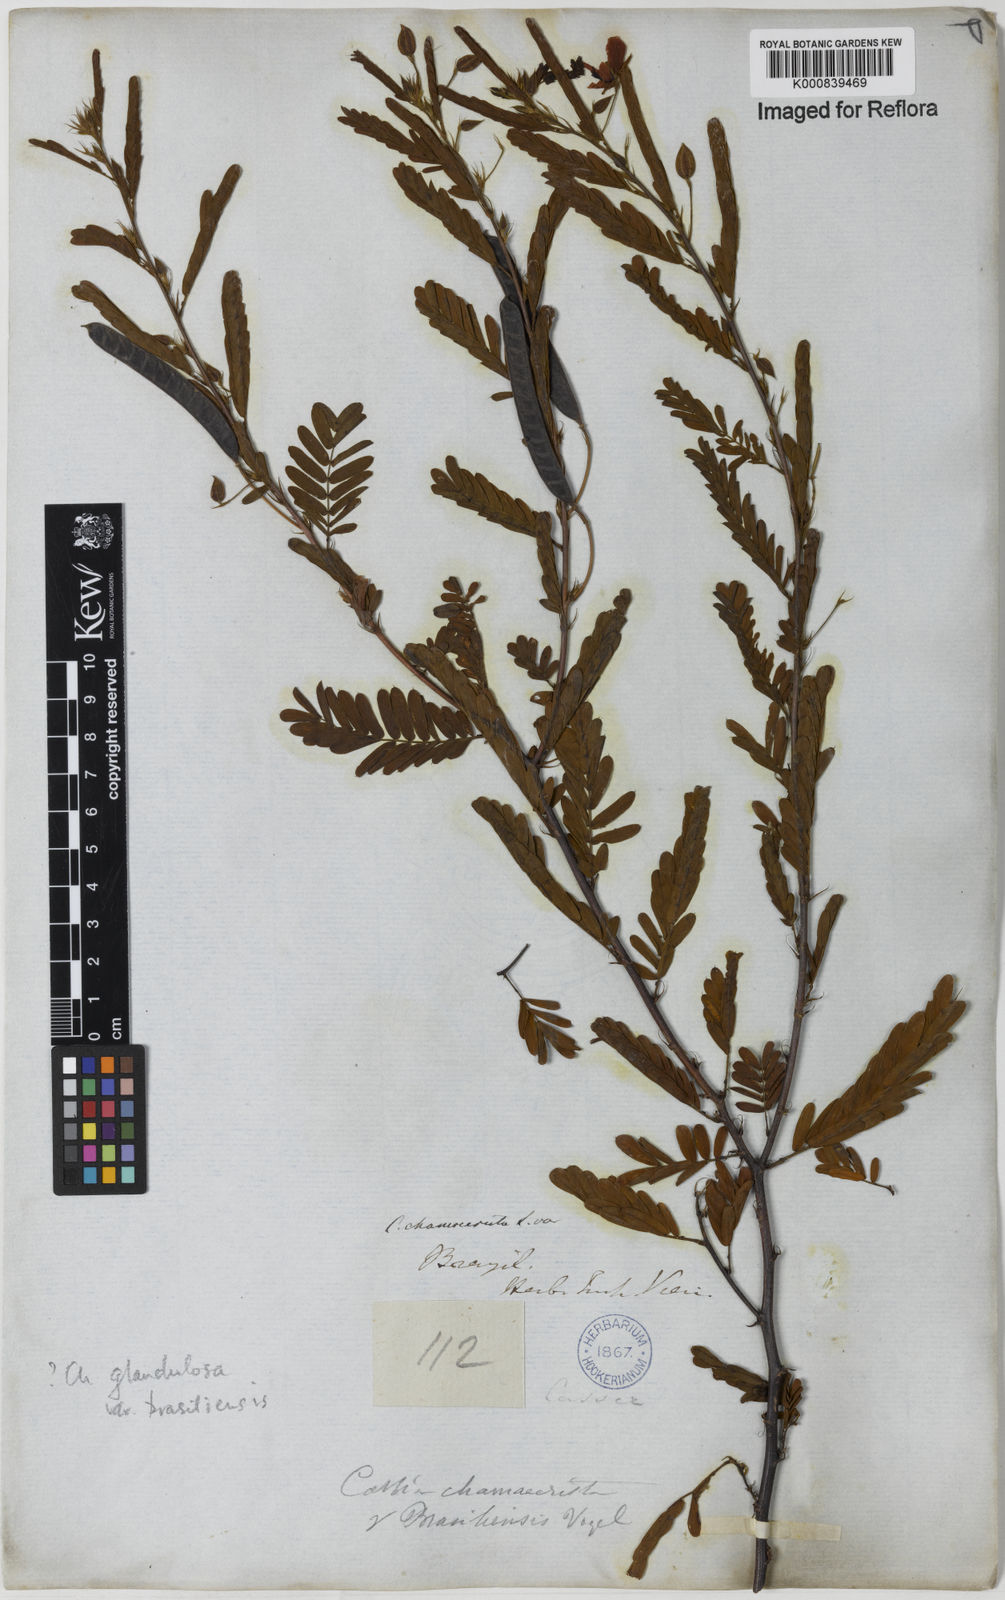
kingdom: Plantae
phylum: Tracheophyta
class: Magnoliopsida
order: Fabales
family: Fabaceae
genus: Chamaecrista
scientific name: Chamaecrista glandulosa
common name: Wild peas
